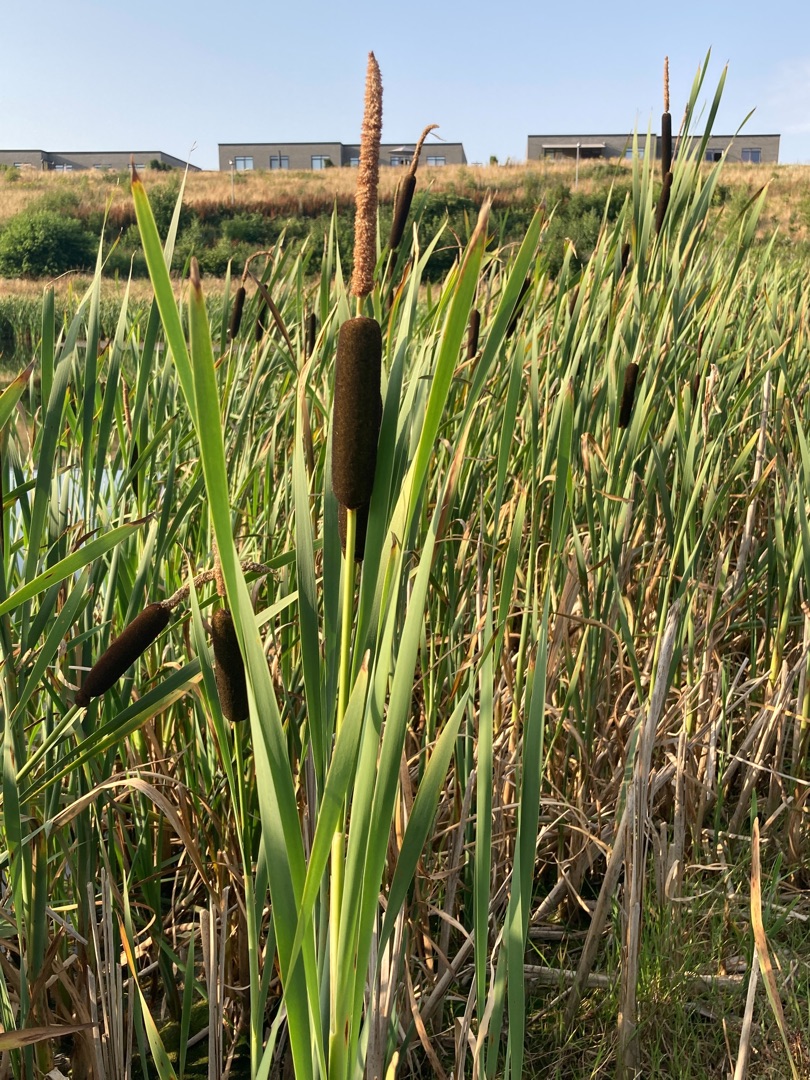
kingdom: Plantae
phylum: Tracheophyta
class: Liliopsida
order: Poales
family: Typhaceae
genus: Typha
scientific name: Typha latifolia
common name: Bredbladet dunhammer
